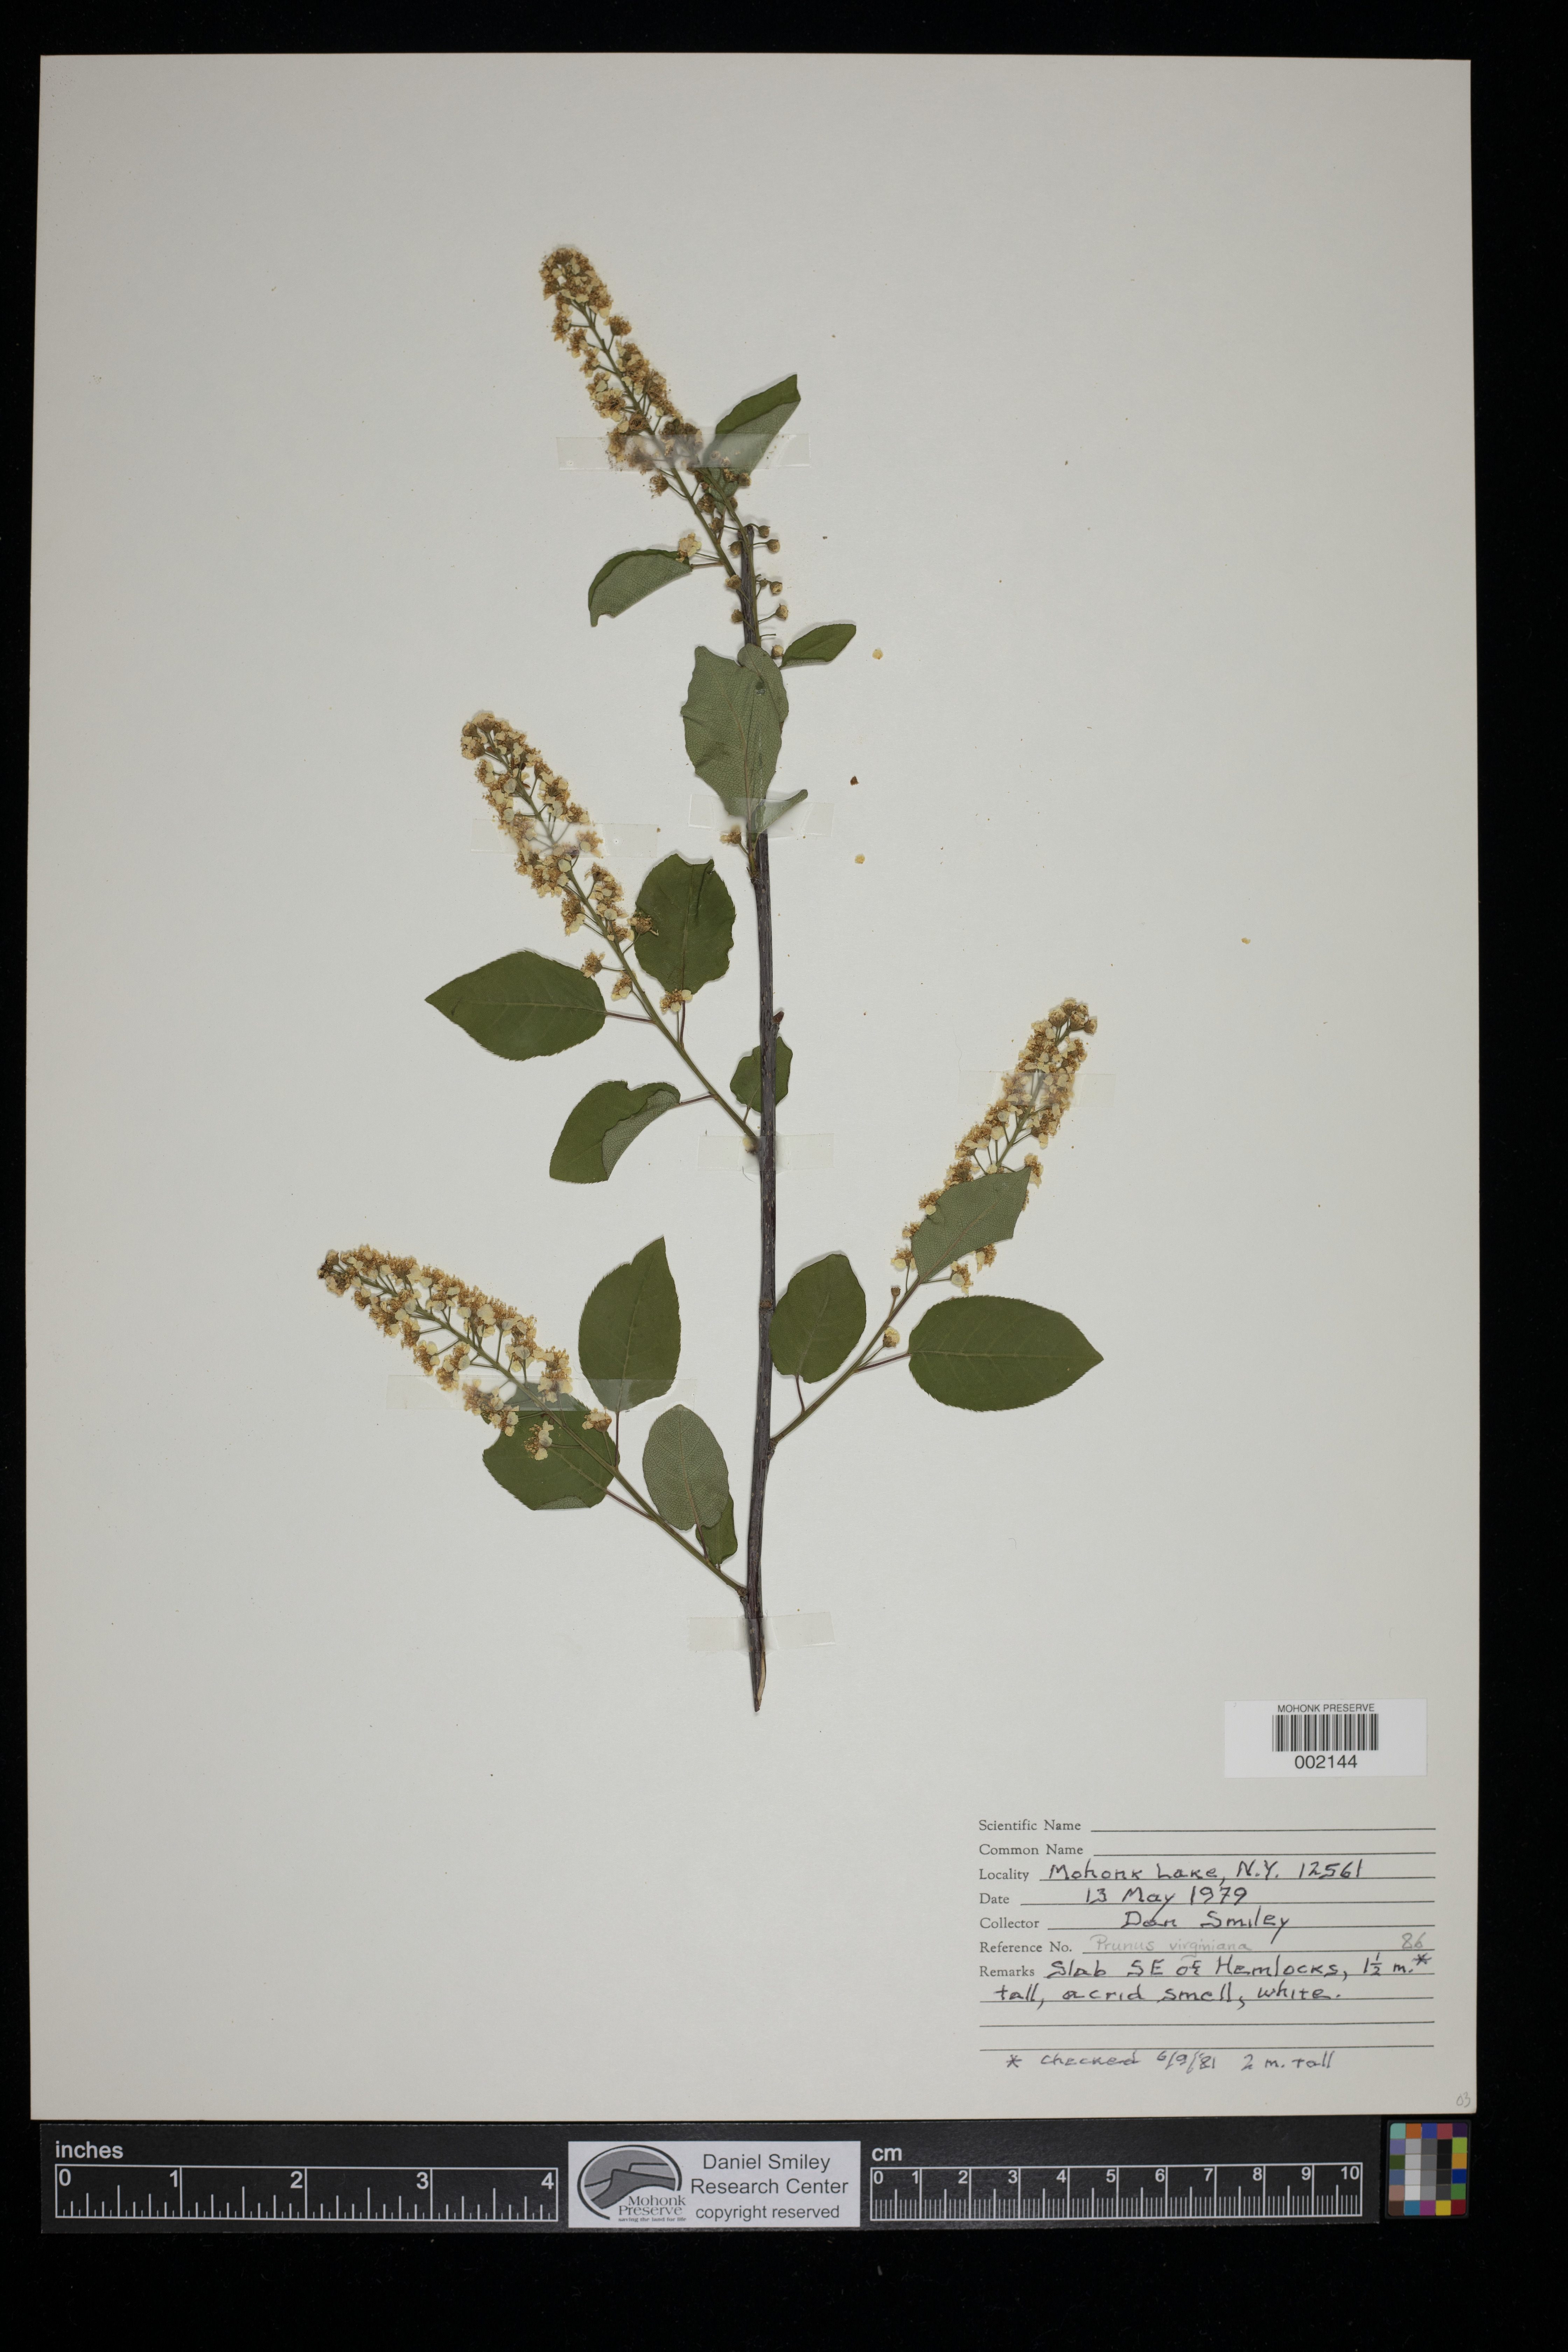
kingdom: Plantae
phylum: Tracheophyta
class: Magnoliopsida
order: Rosales
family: Rosaceae
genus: Prunus
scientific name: Prunus virginiana
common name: Chokecherry
